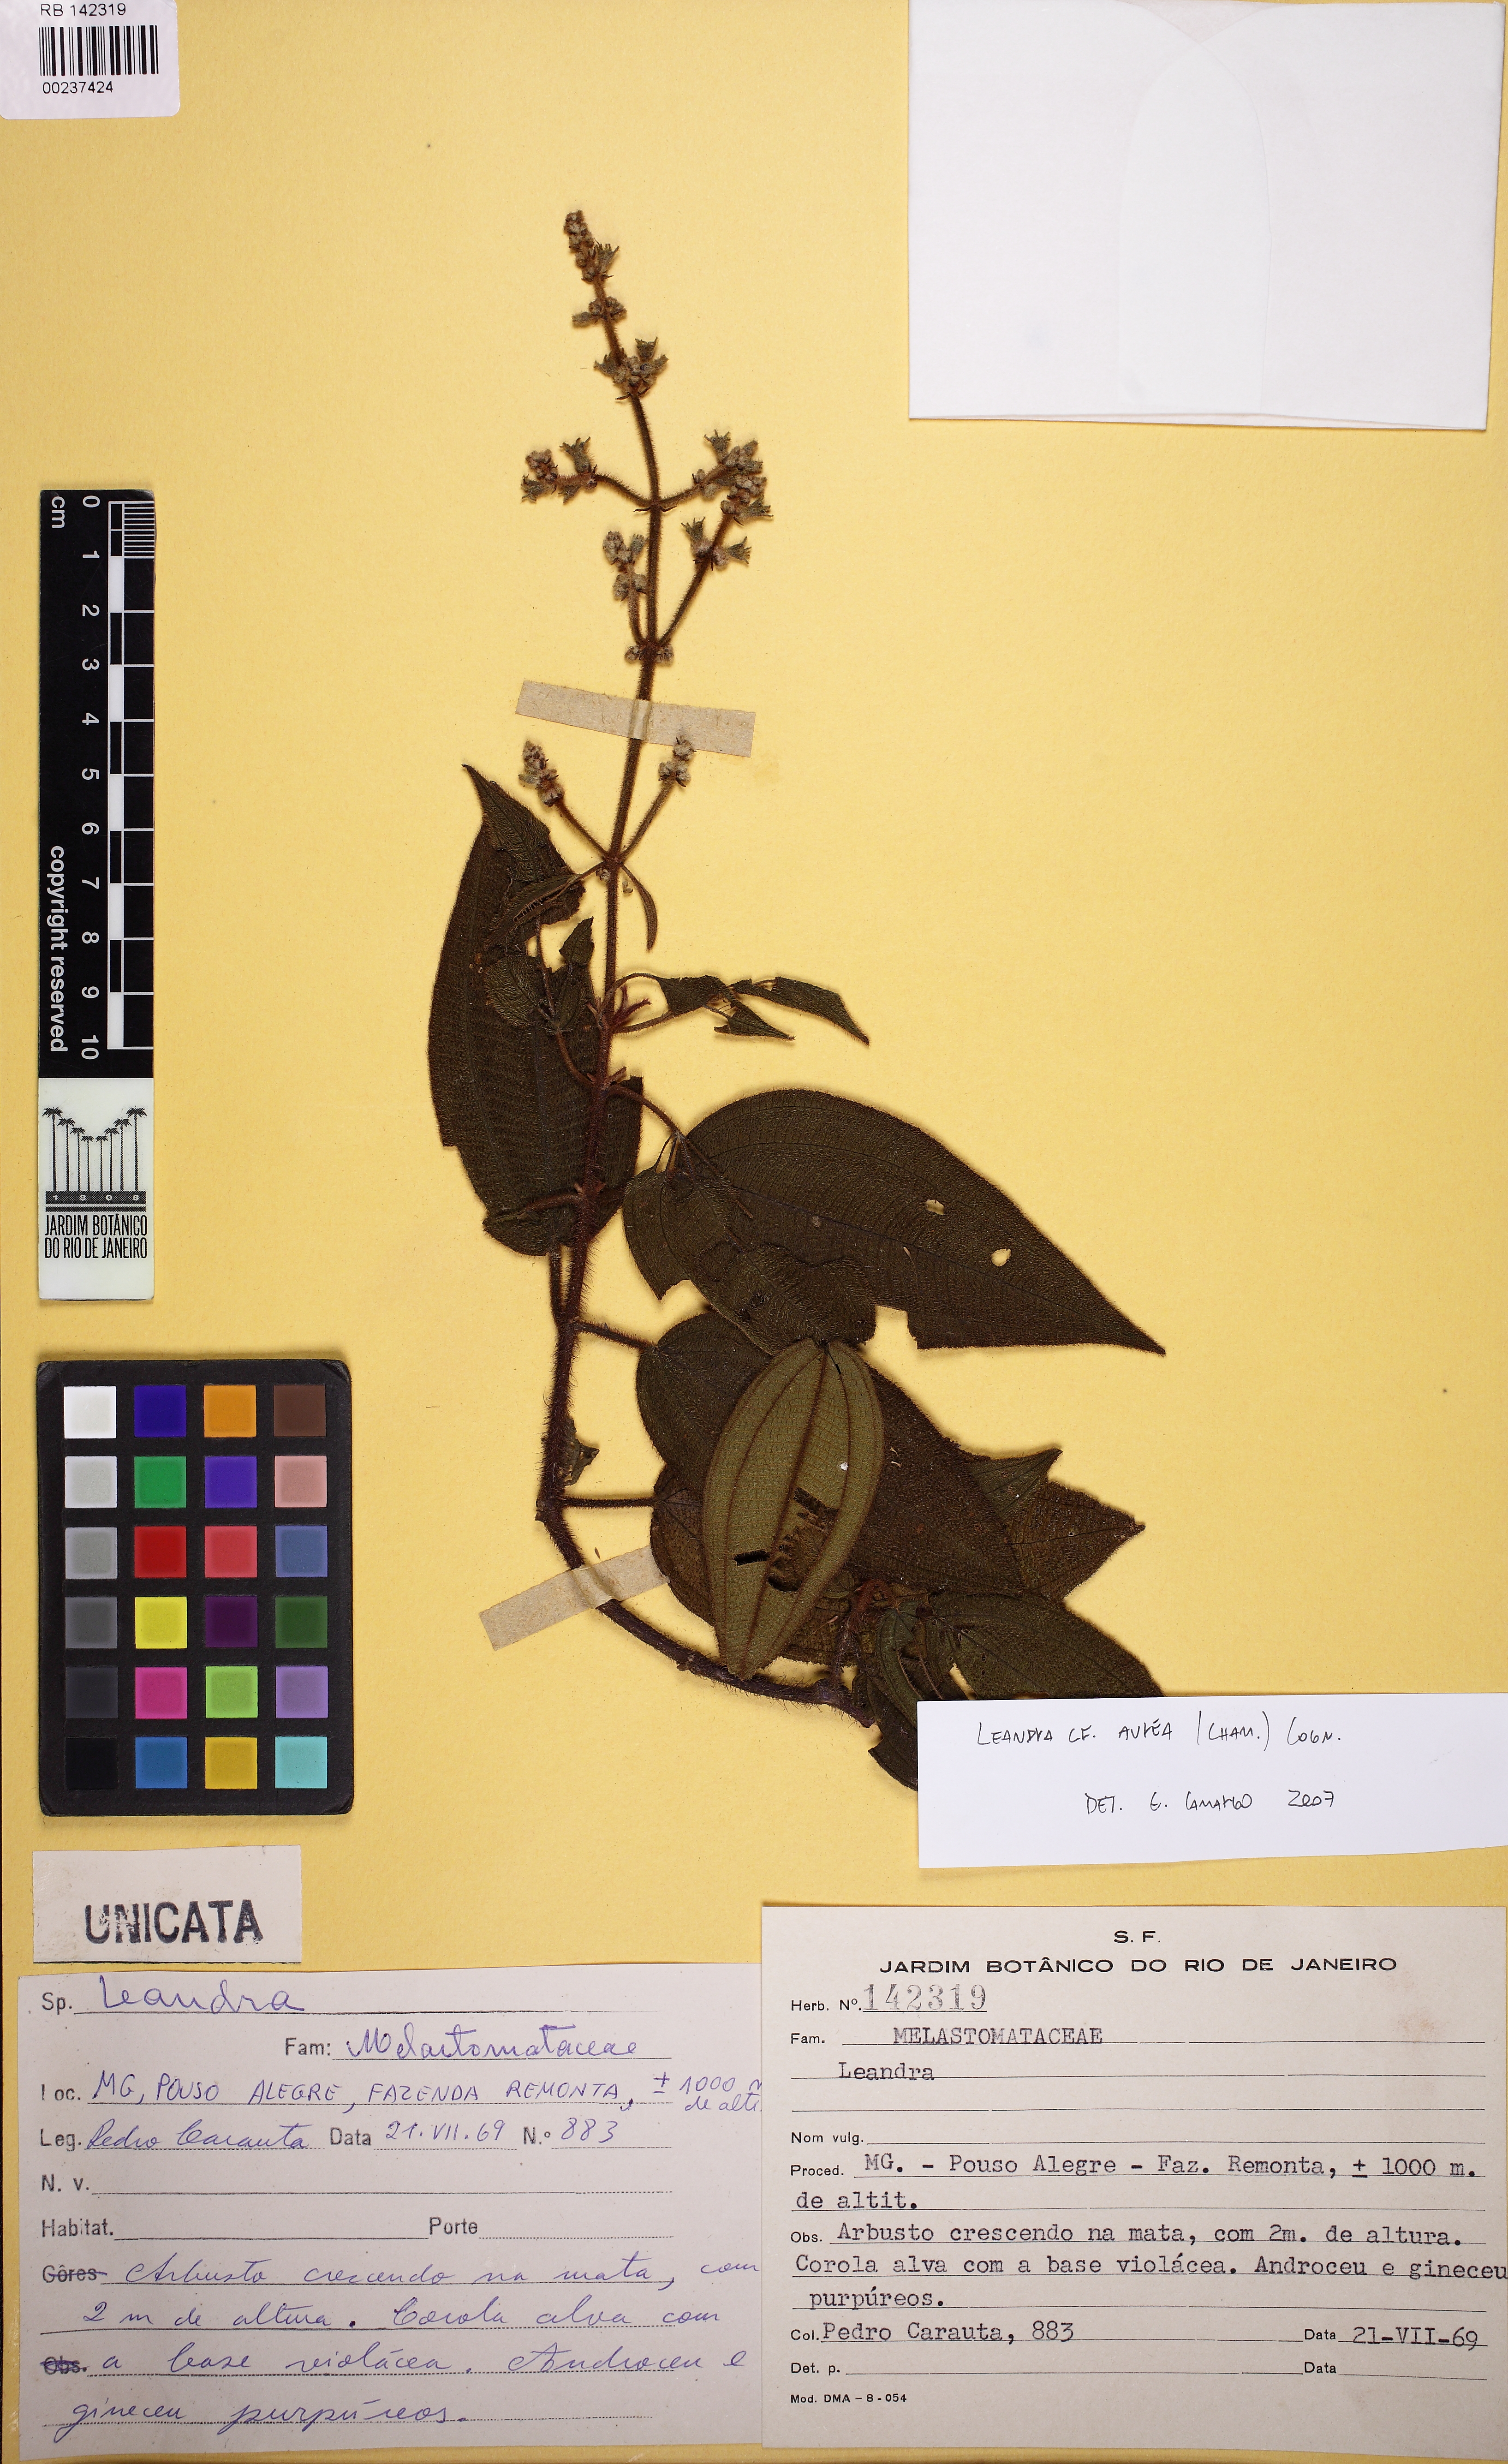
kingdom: Plantae
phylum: Tracheophyta
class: Magnoliopsida
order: Myrtales
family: Melastomataceae
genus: Miconia
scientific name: Miconia auricoma
